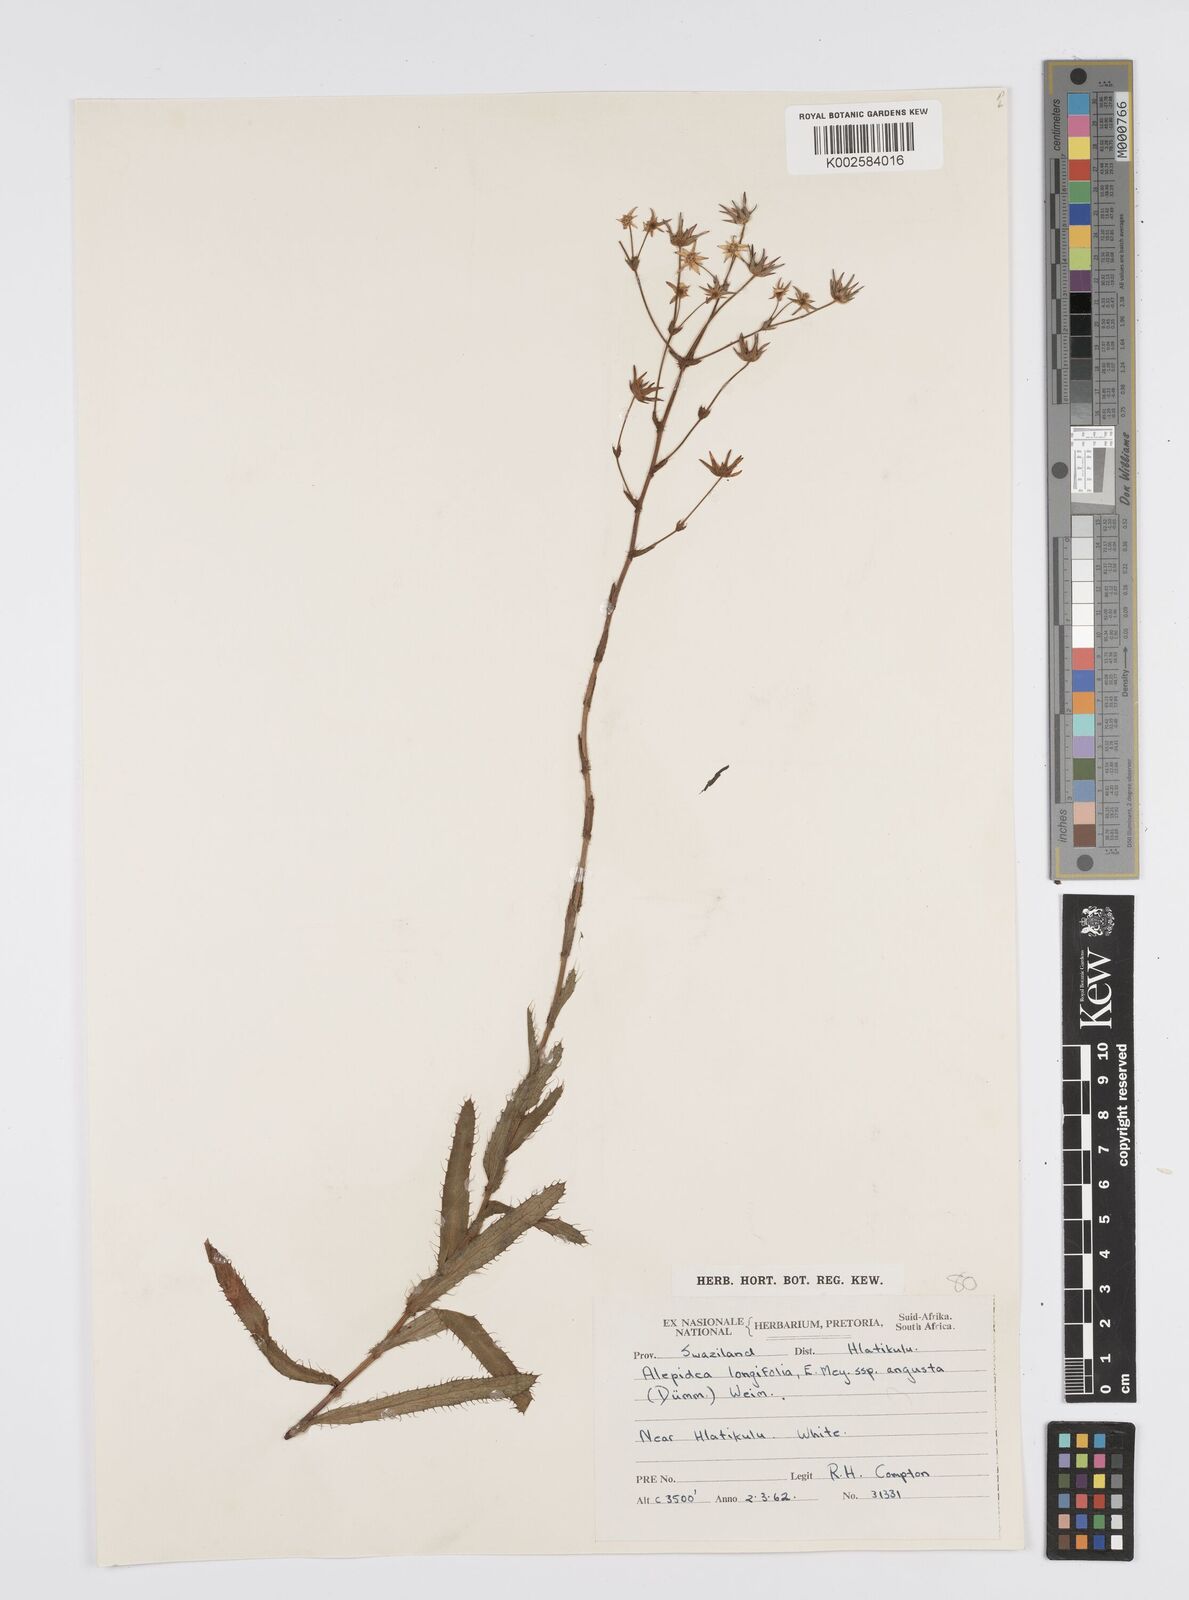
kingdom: Plantae
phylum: Tracheophyta
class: Magnoliopsida
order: Apiales
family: Apiaceae
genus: Alepidea
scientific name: Alepidea
